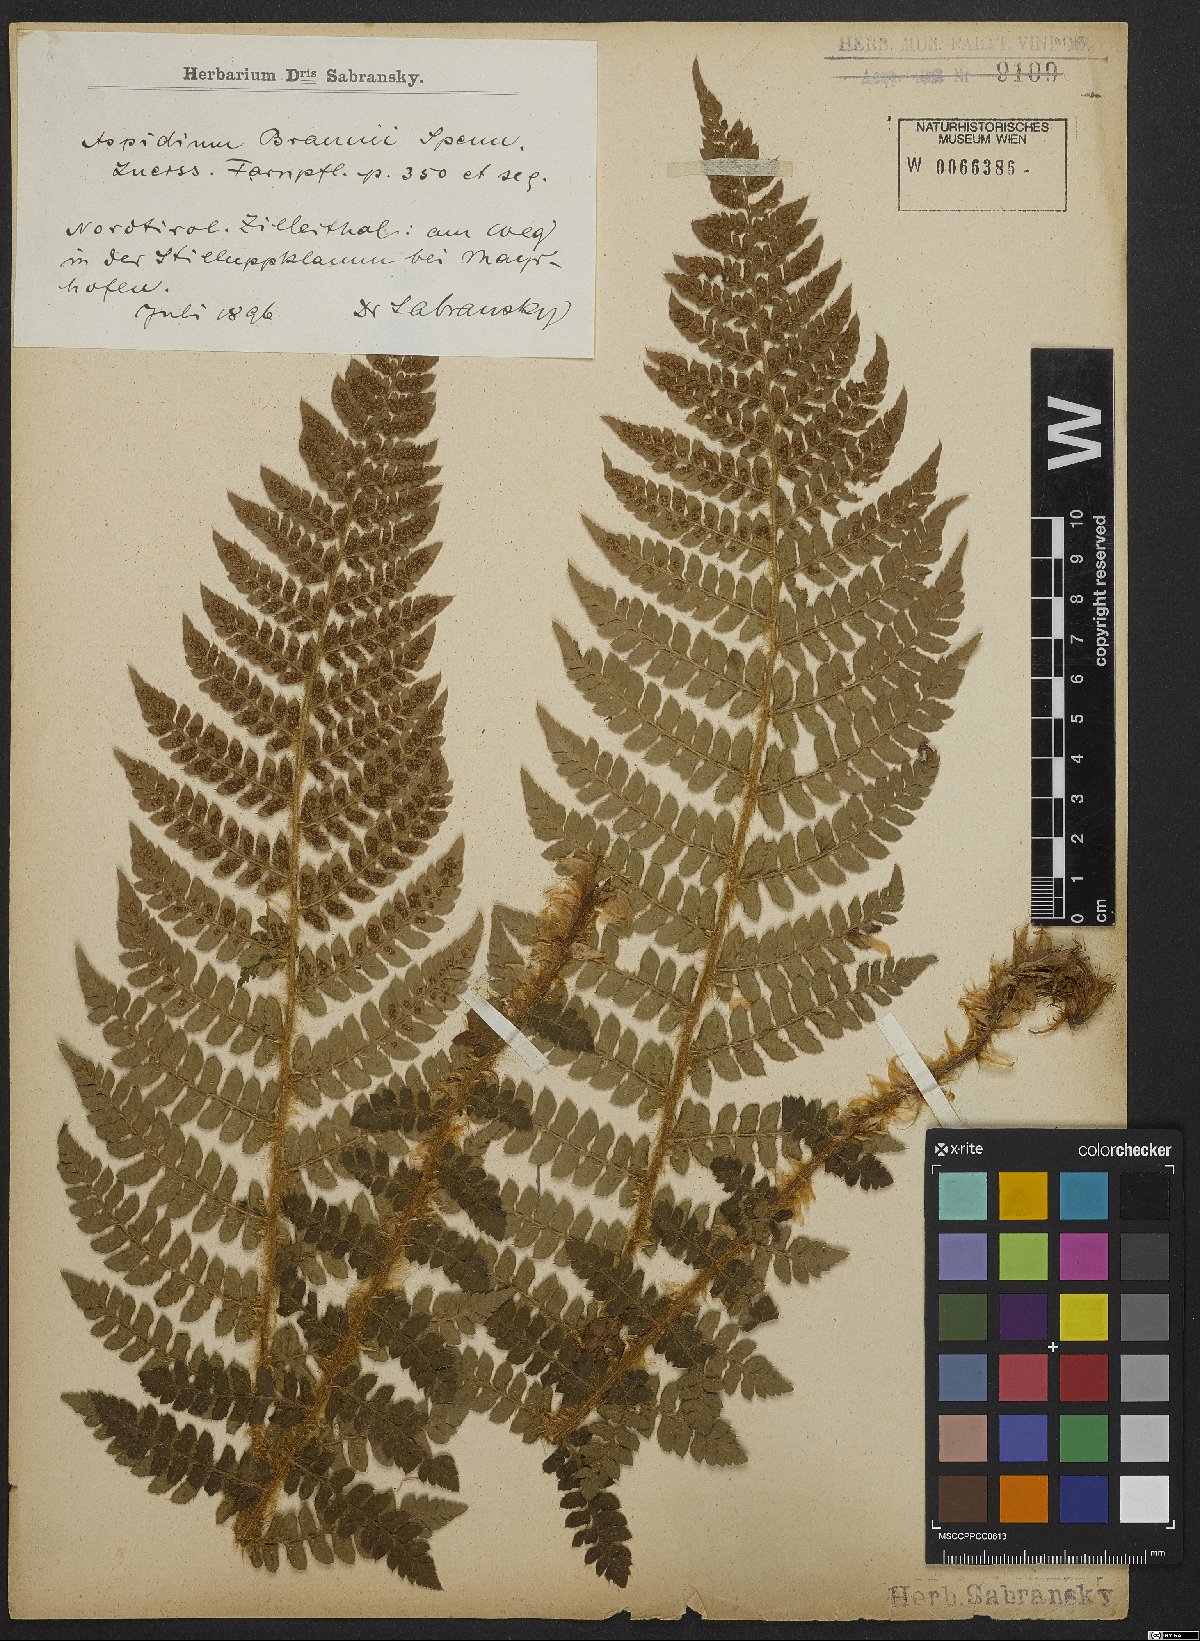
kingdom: Plantae
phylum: Tracheophyta
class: Polypodiopsida
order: Polypodiales
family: Dryopteridaceae
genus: Polystichum
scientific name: Polystichum braunii
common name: Braun's holly fern
